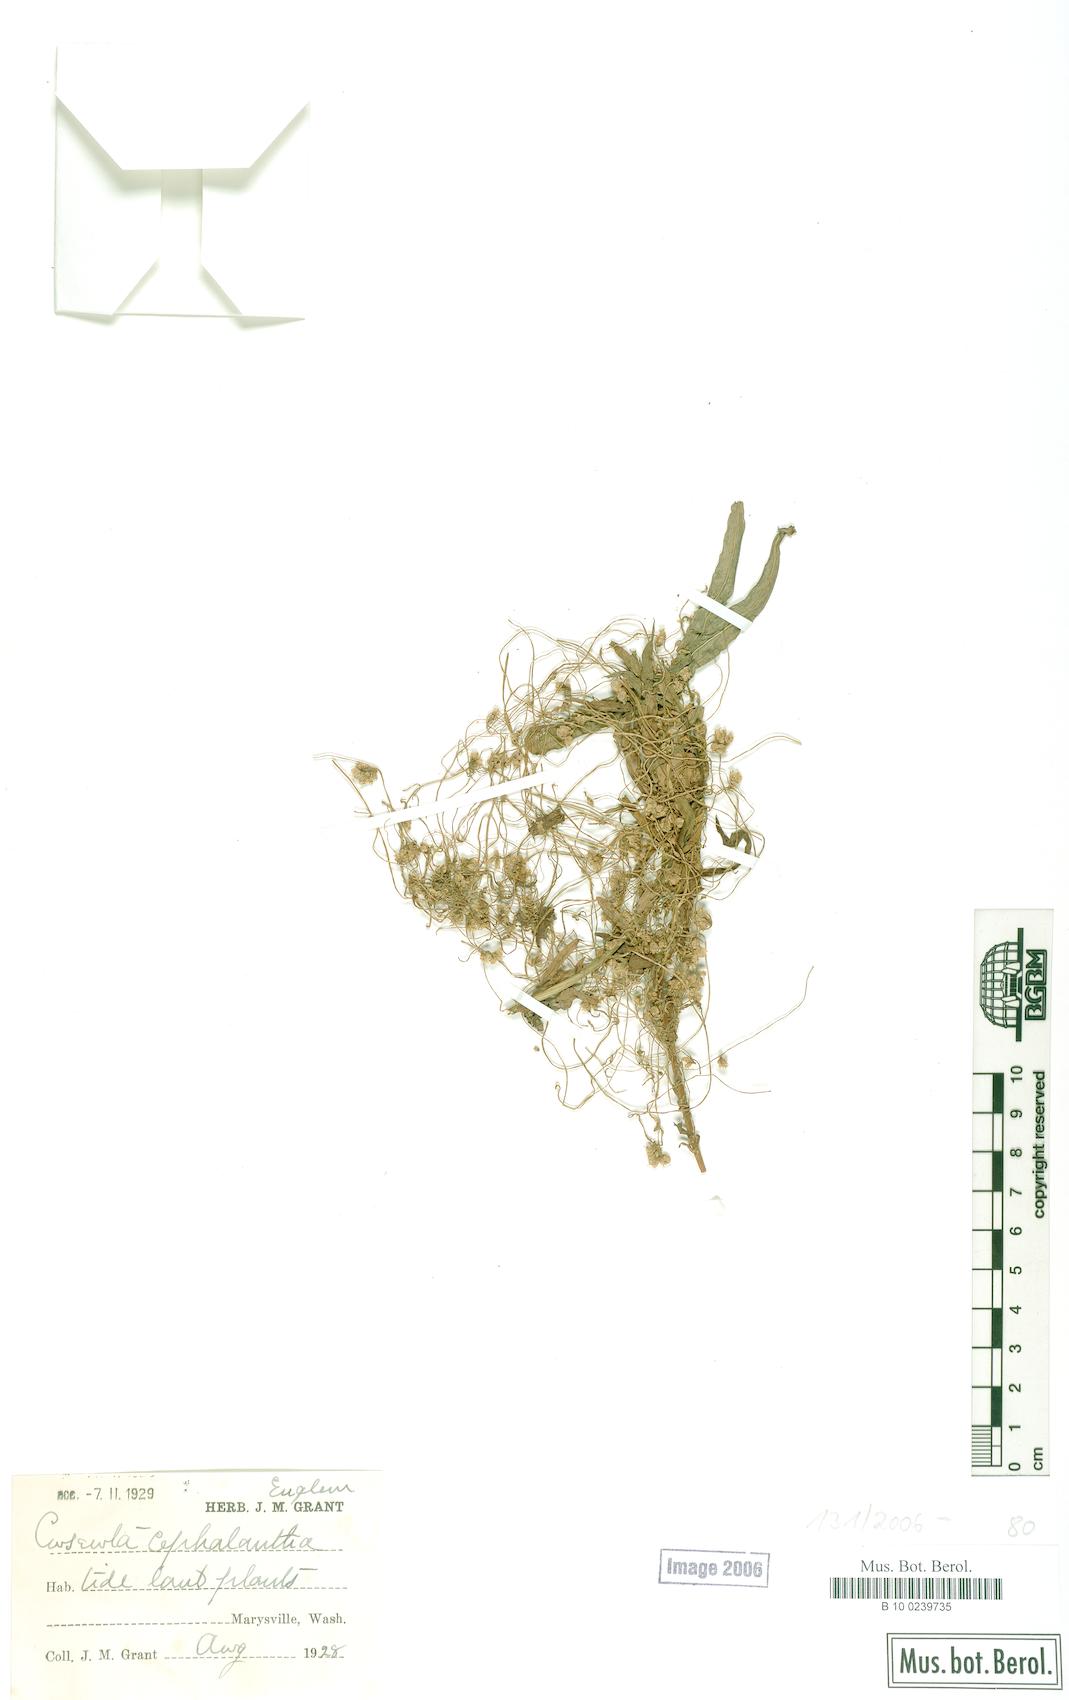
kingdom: Plantae
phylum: Tracheophyta
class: Magnoliopsida
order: Solanales
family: Convolvulaceae
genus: Cuscuta
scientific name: Cuscuta cephalanthi
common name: Button dodder
